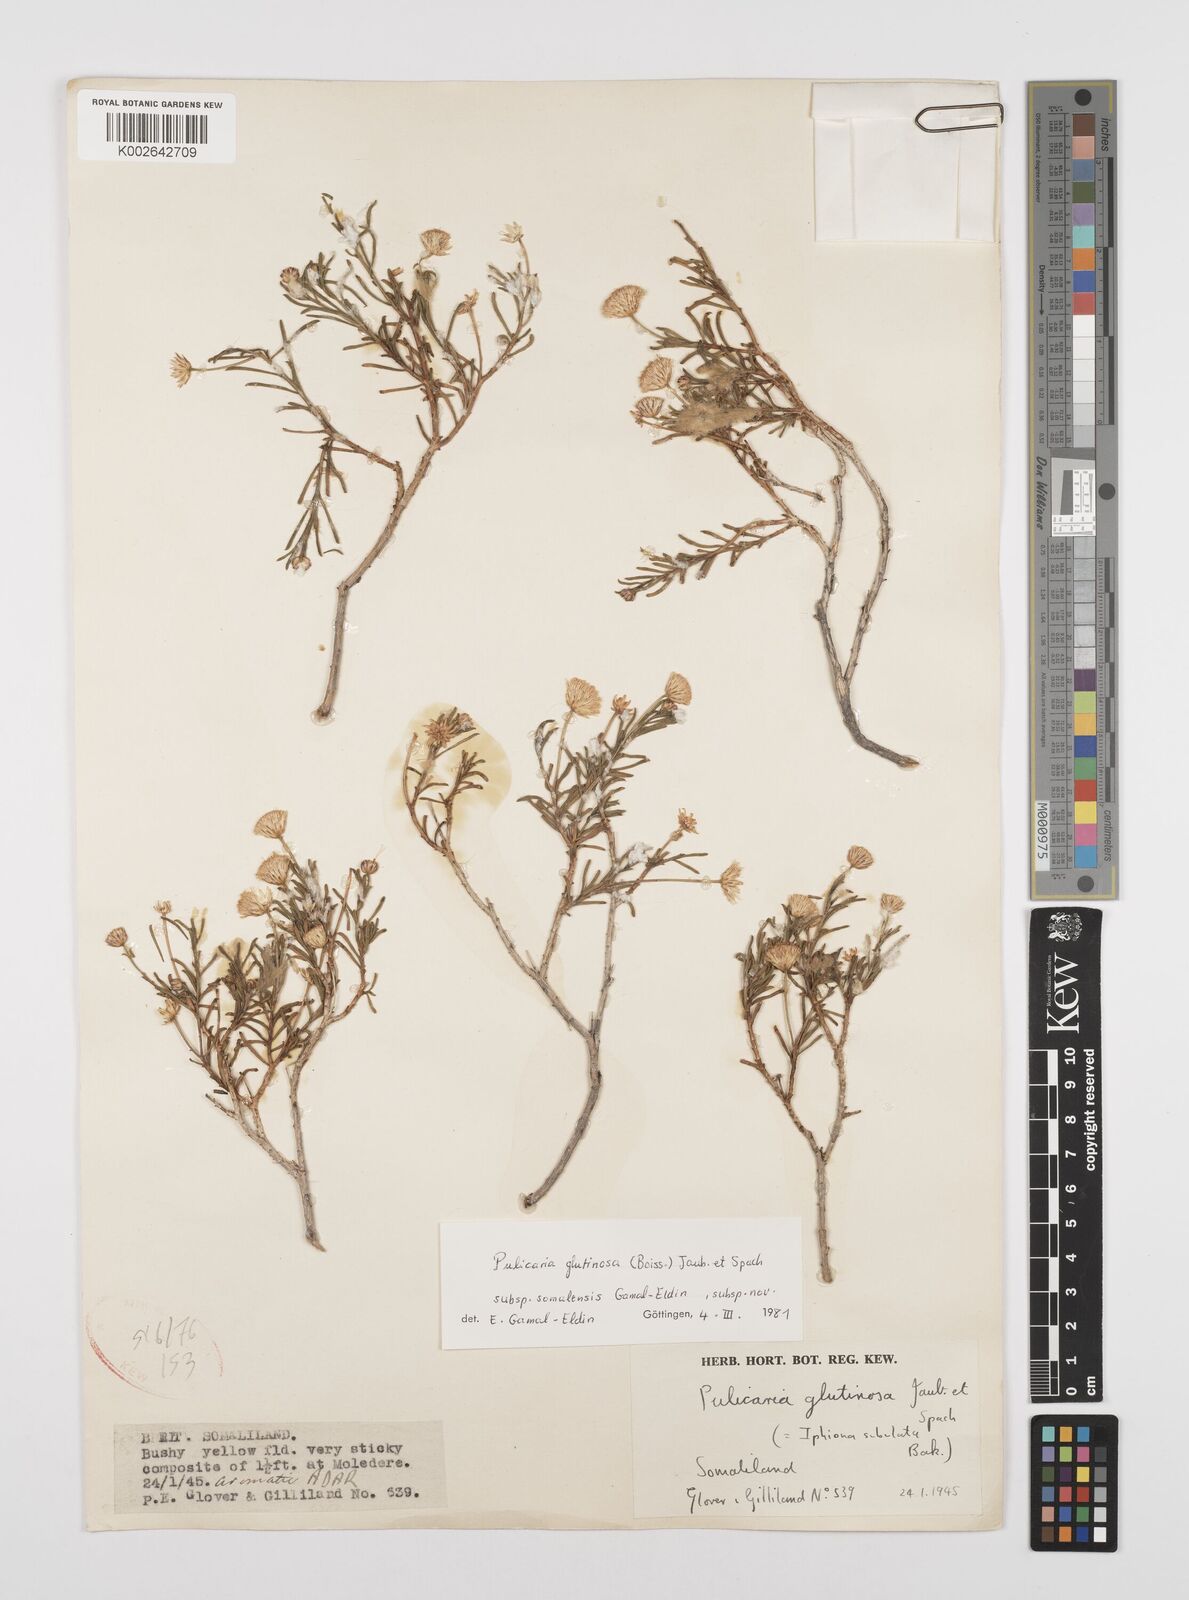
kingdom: Plantae
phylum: Tracheophyta
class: Magnoliopsida
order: Asterales
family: Asteraceae
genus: Pulicaria
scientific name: Pulicaria glutinosa
